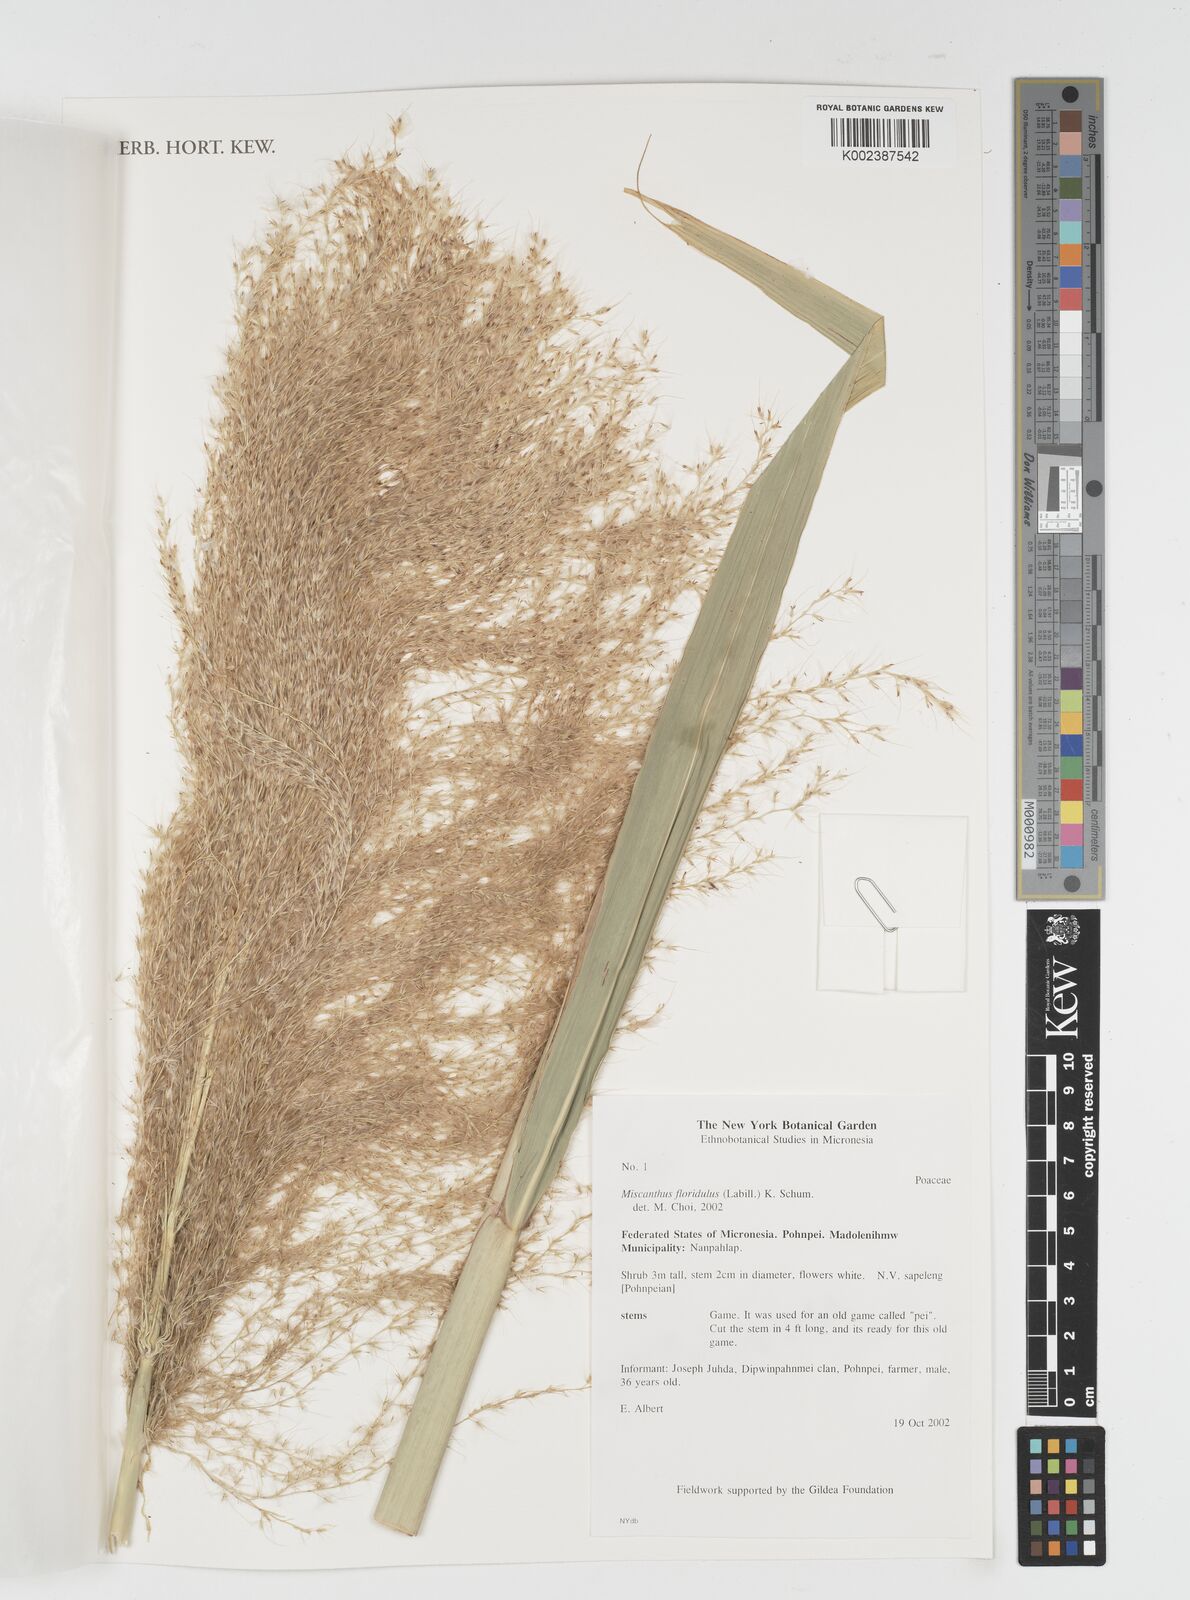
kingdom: Plantae
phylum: Tracheophyta
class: Liliopsida
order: Poales
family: Poaceae
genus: Miscanthus
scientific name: Miscanthus floridulus
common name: Pacific island silvergrass
